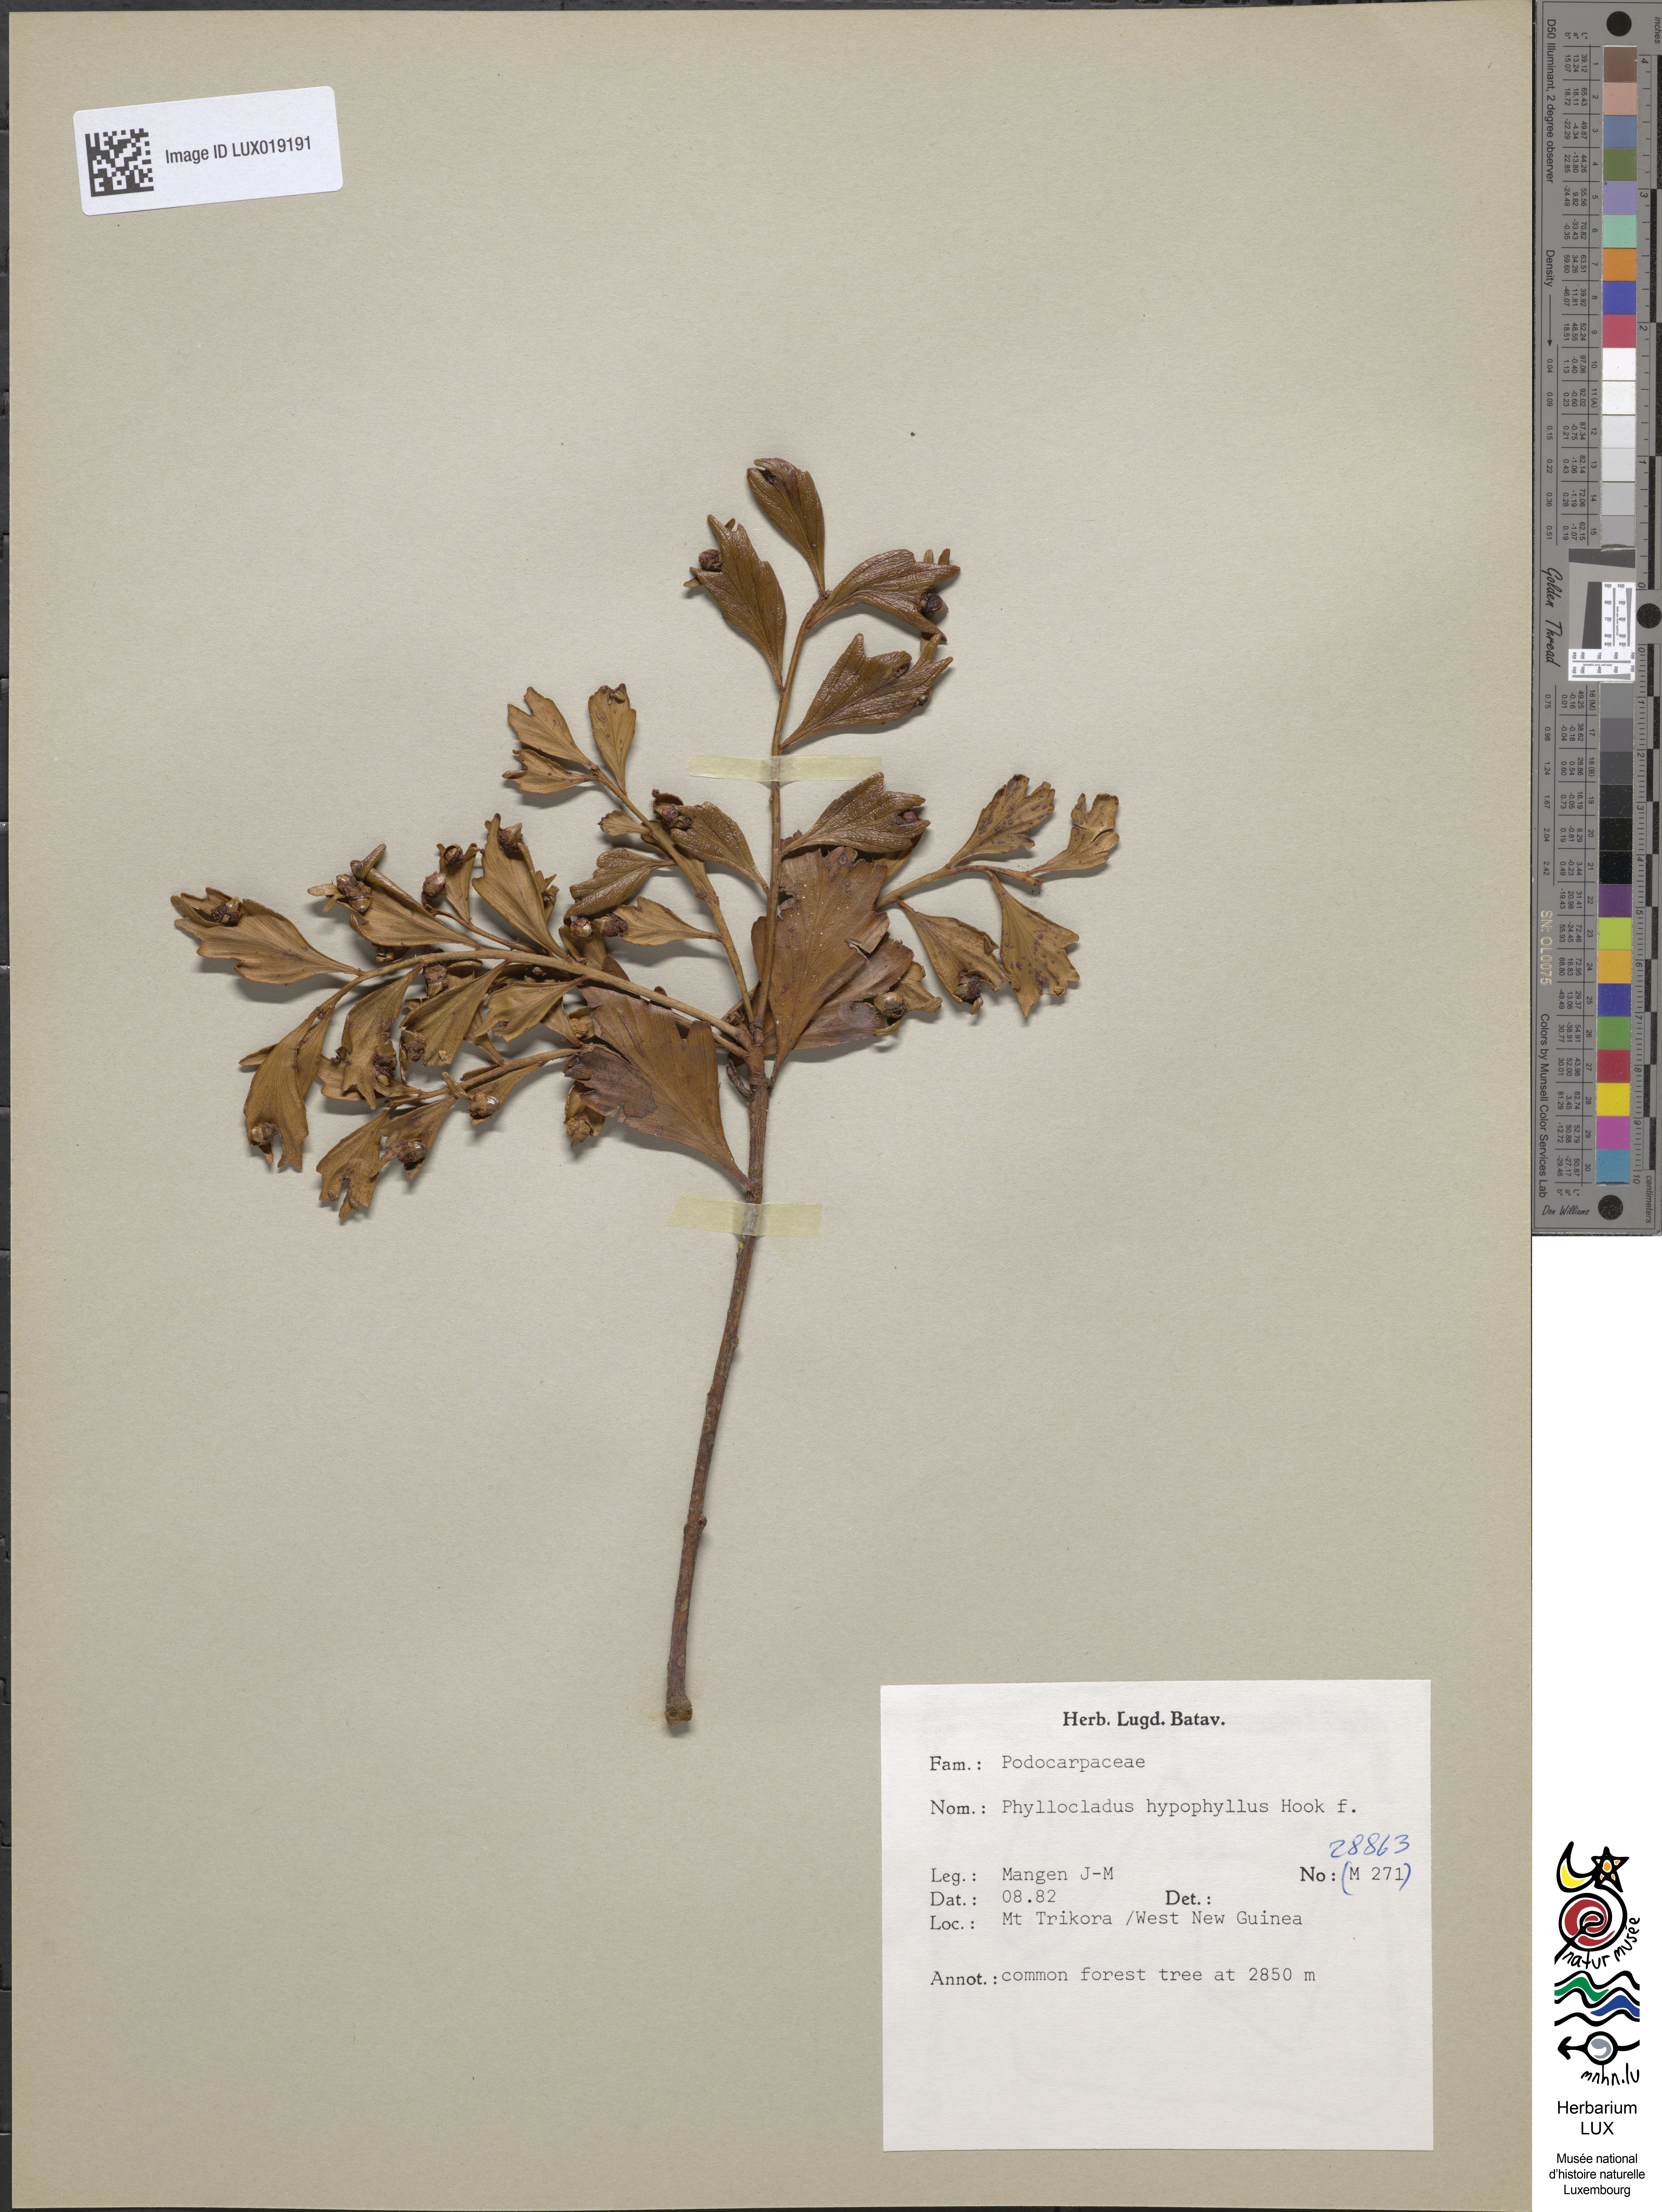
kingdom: Plantae
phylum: Tracheophyta
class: Pinopsida
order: Pinales
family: Phyllocladaceae
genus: Phyllocladus
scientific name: Phyllocladus hypophyllus
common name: Celery pine
